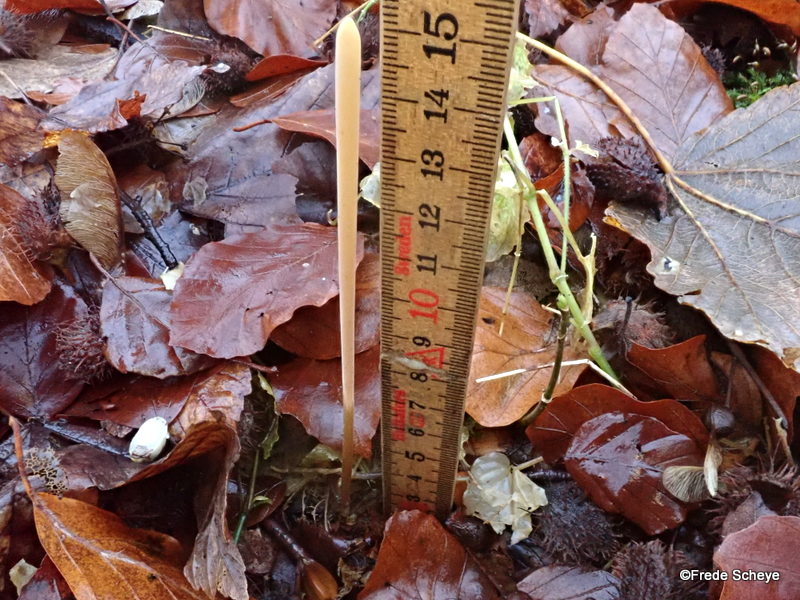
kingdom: Fungi
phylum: Basidiomycota
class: Agaricomycetes
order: Agaricales
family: Typhulaceae
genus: Typhula
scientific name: Typhula fistulosa
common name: pibet rørkølle
